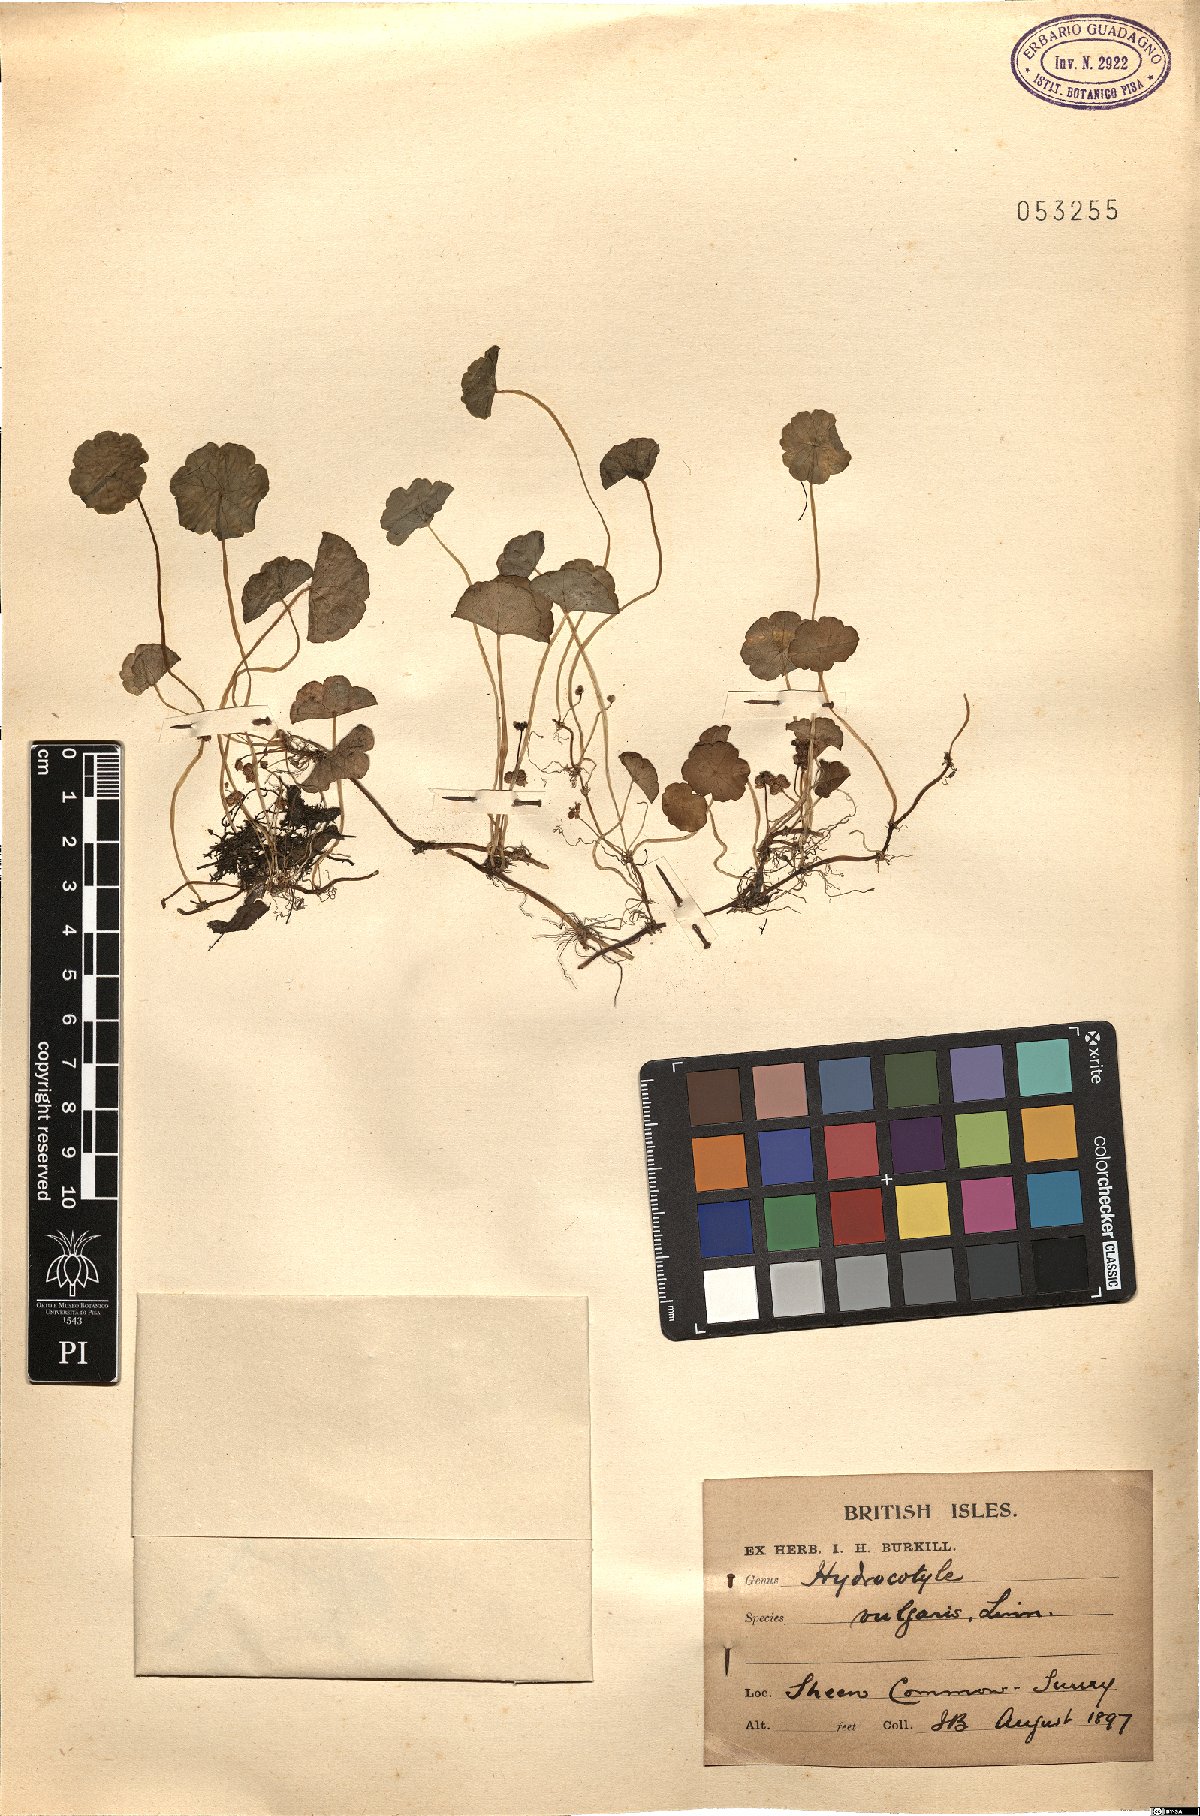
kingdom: Plantae
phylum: Tracheophyta
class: Magnoliopsida
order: Apiales
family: Araliaceae
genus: Hydrocotyle
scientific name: Hydrocotyle vulgaris
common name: Marsh pennywort
